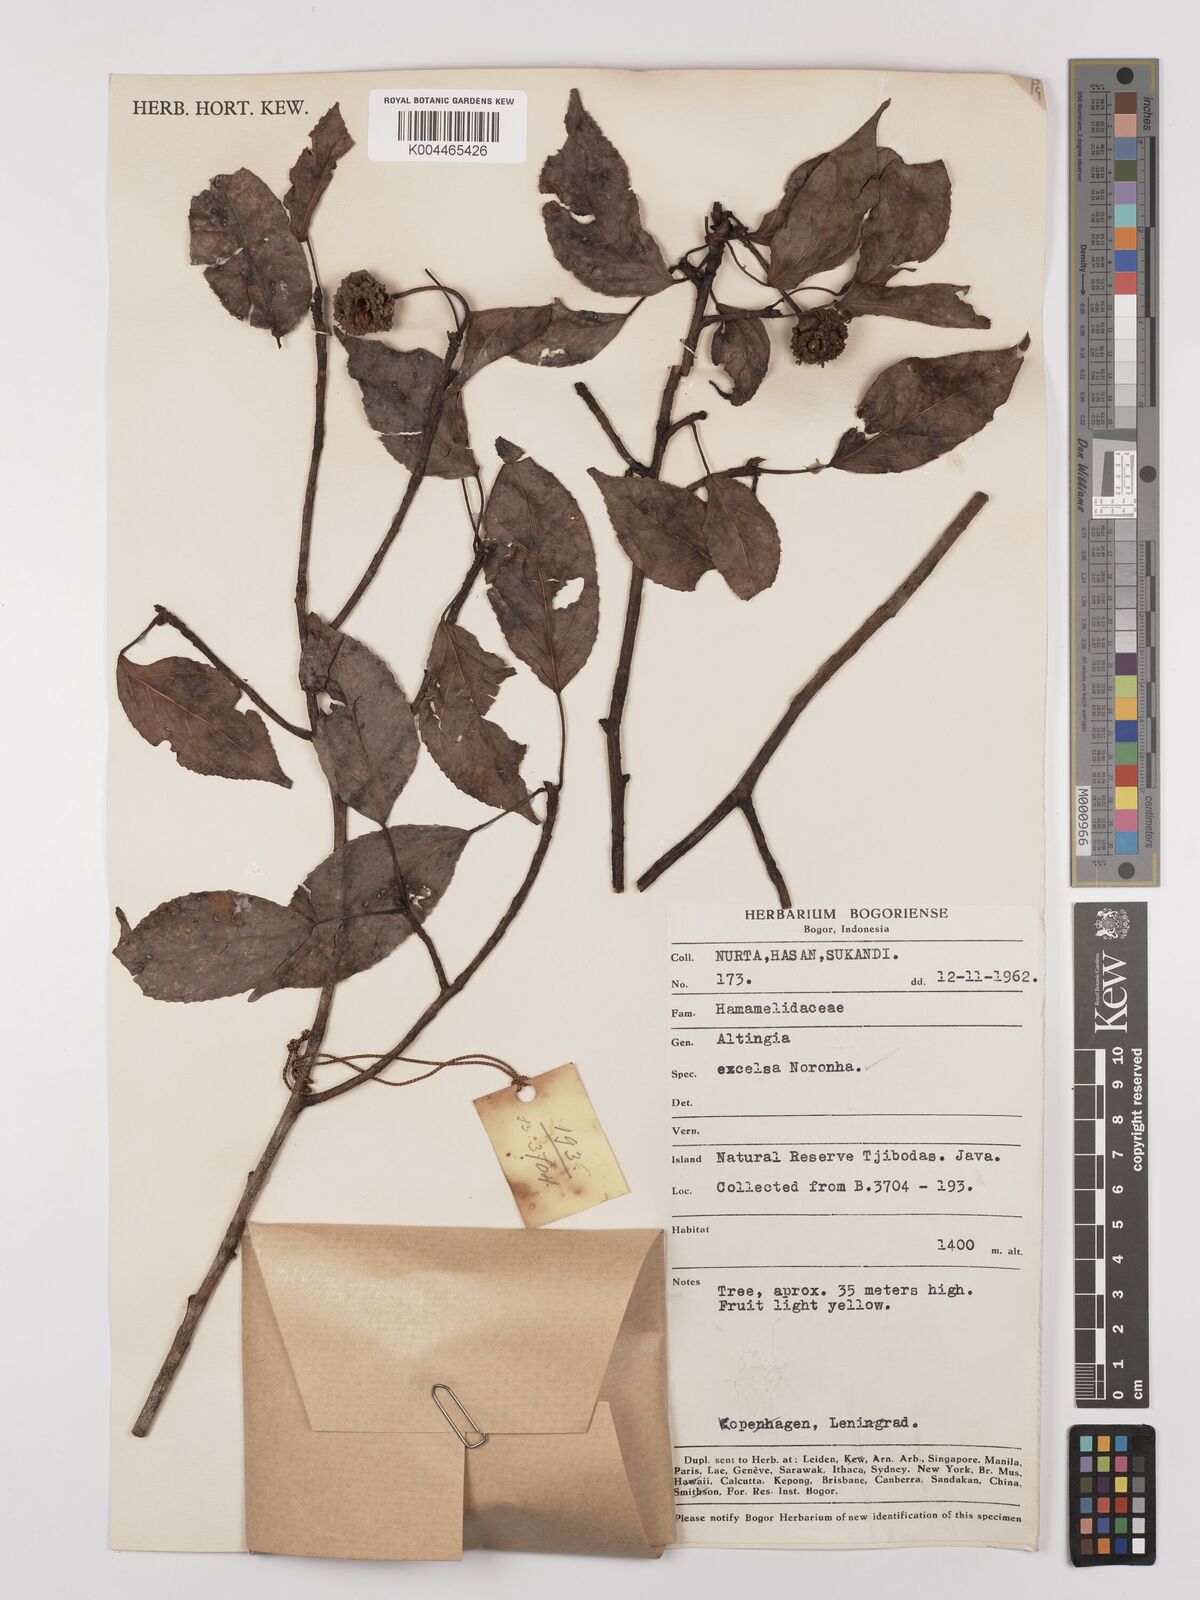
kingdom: Plantae
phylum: Tracheophyta
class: Magnoliopsida
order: Saxifragales
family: Altingiaceae
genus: Liquidambar
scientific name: Liquidambar excelsa
